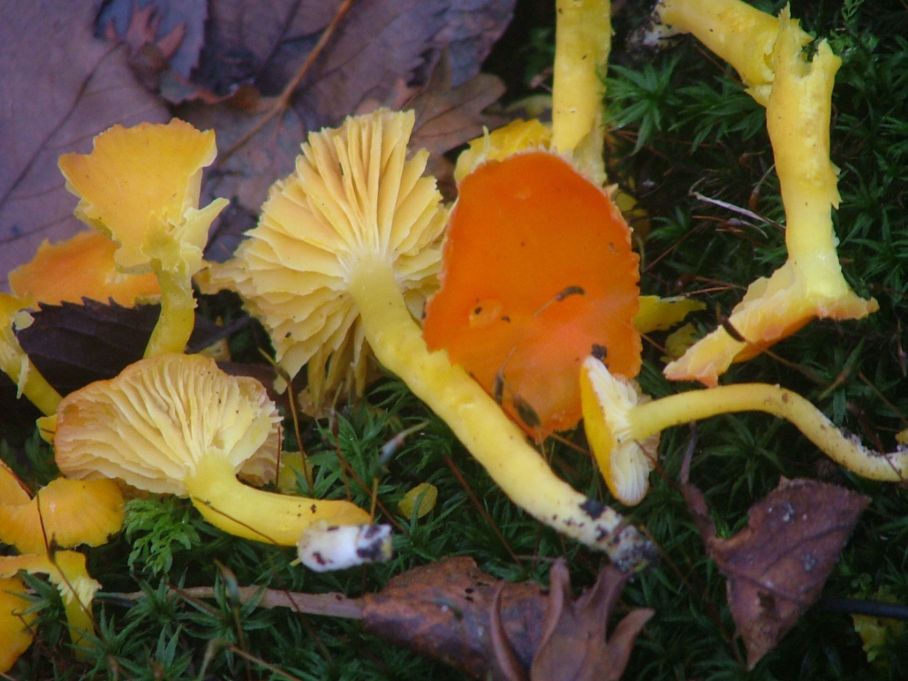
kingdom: Fungi
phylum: Basidiomycota
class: Agaricomycetes
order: Agaricales
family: Hygrophoraceae
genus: Hygrocybe
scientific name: Hygrocybe ceracea
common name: voksgul vokshat
